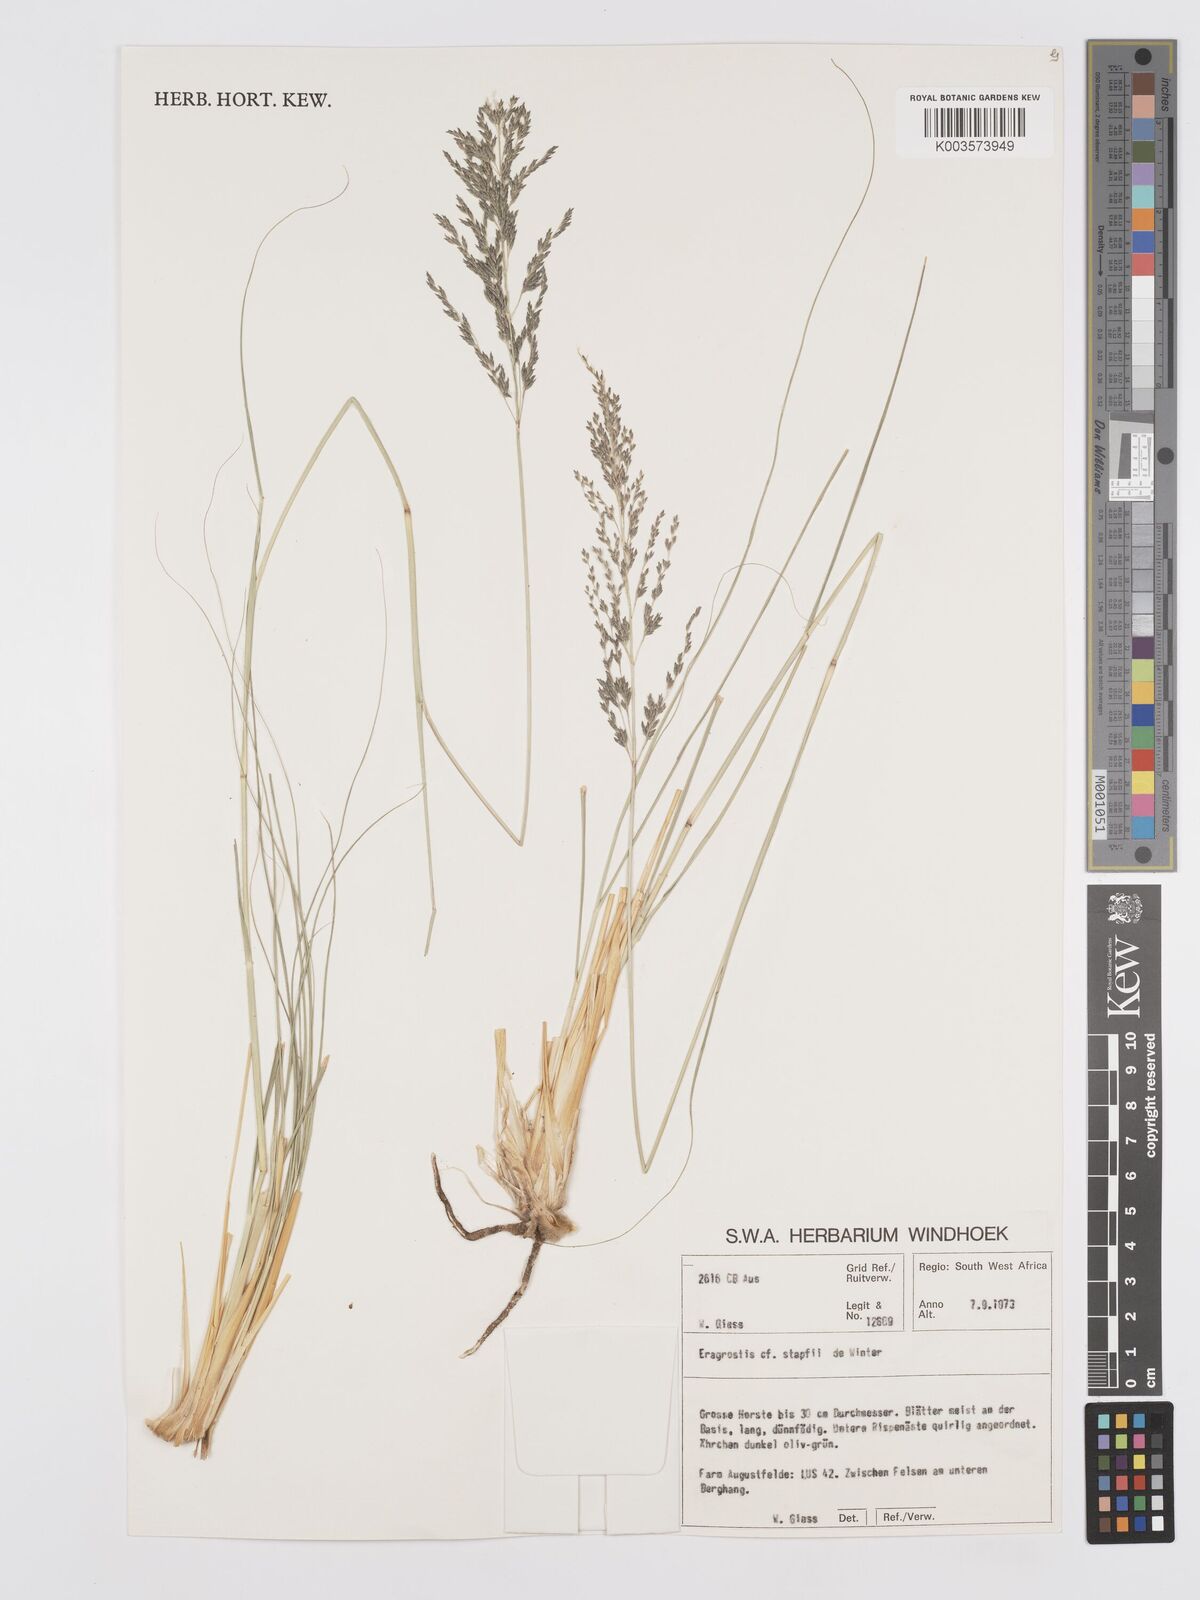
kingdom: Plantae
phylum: Tracheophyta
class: Liliopsida
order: Poales
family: Poaceae
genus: Eragrostis
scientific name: Eragrostis stapfii
